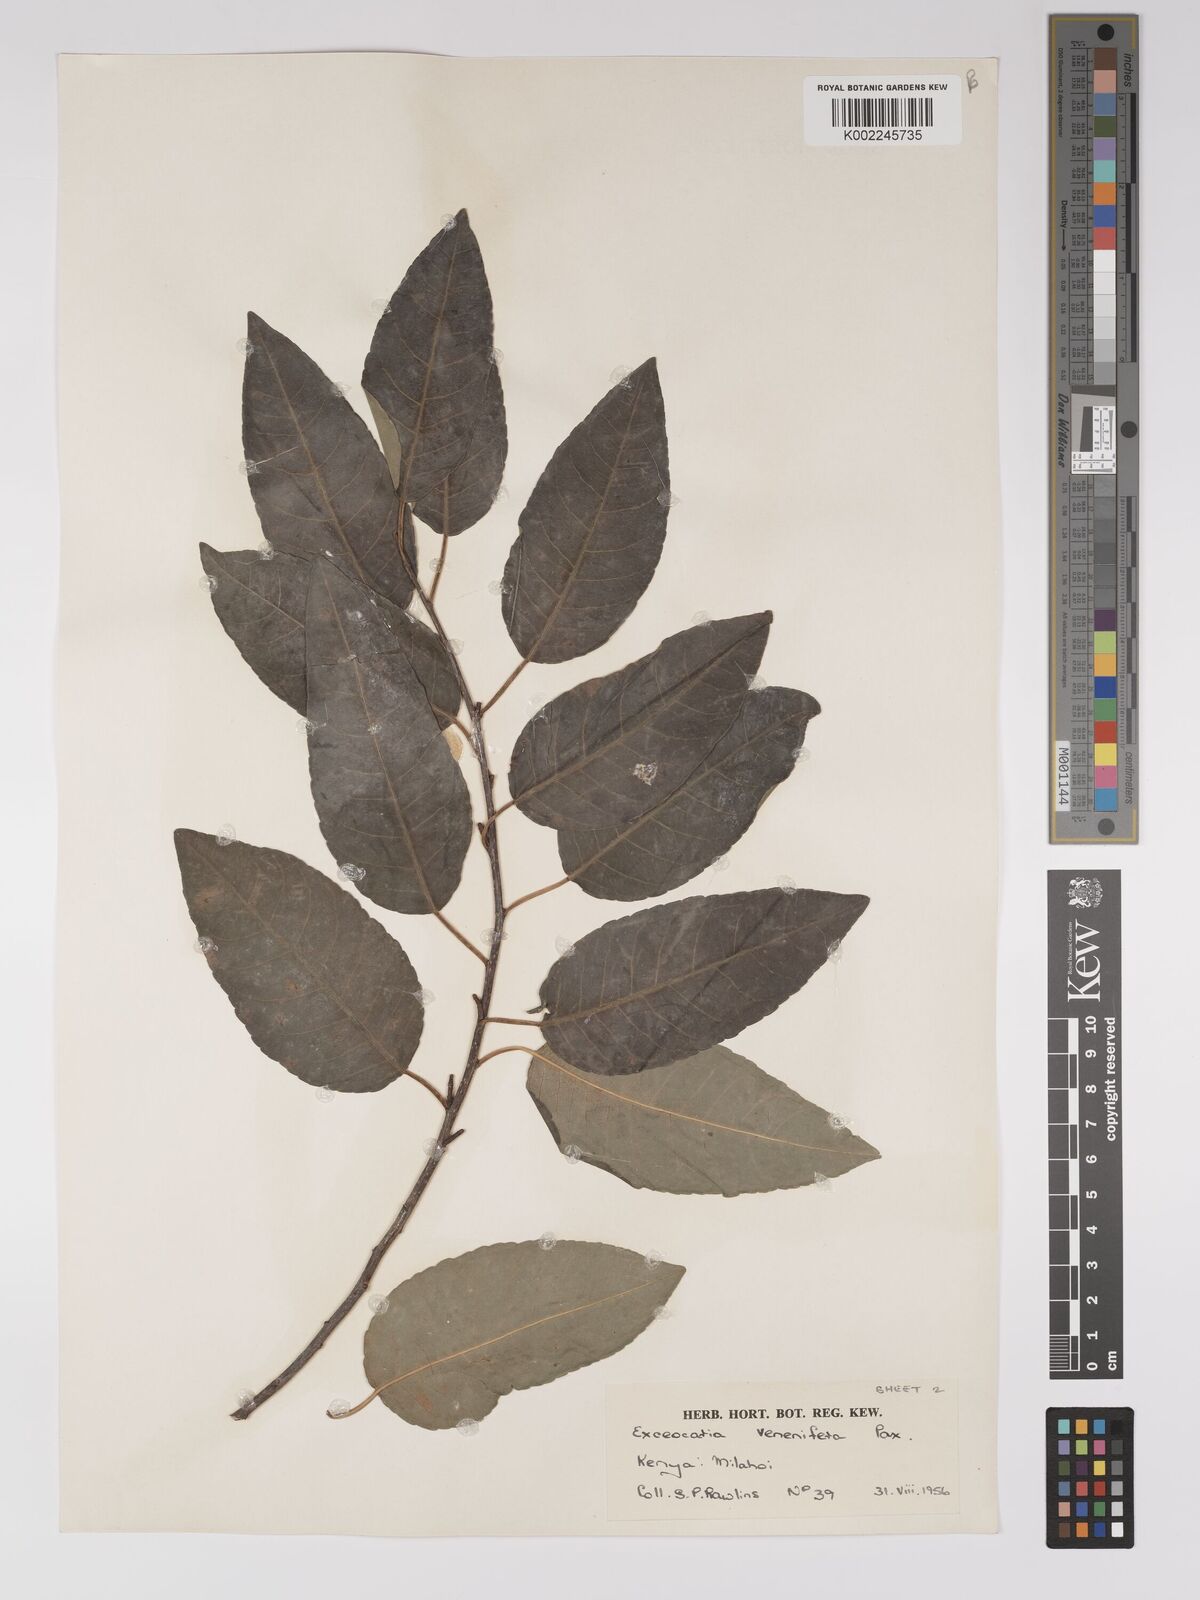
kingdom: Plantae
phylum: Tracheophyta
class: Magnoliopsida
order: Malpighiales
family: Euphorbiaceae
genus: Spirostachys
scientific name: Spirostachys venenifera
